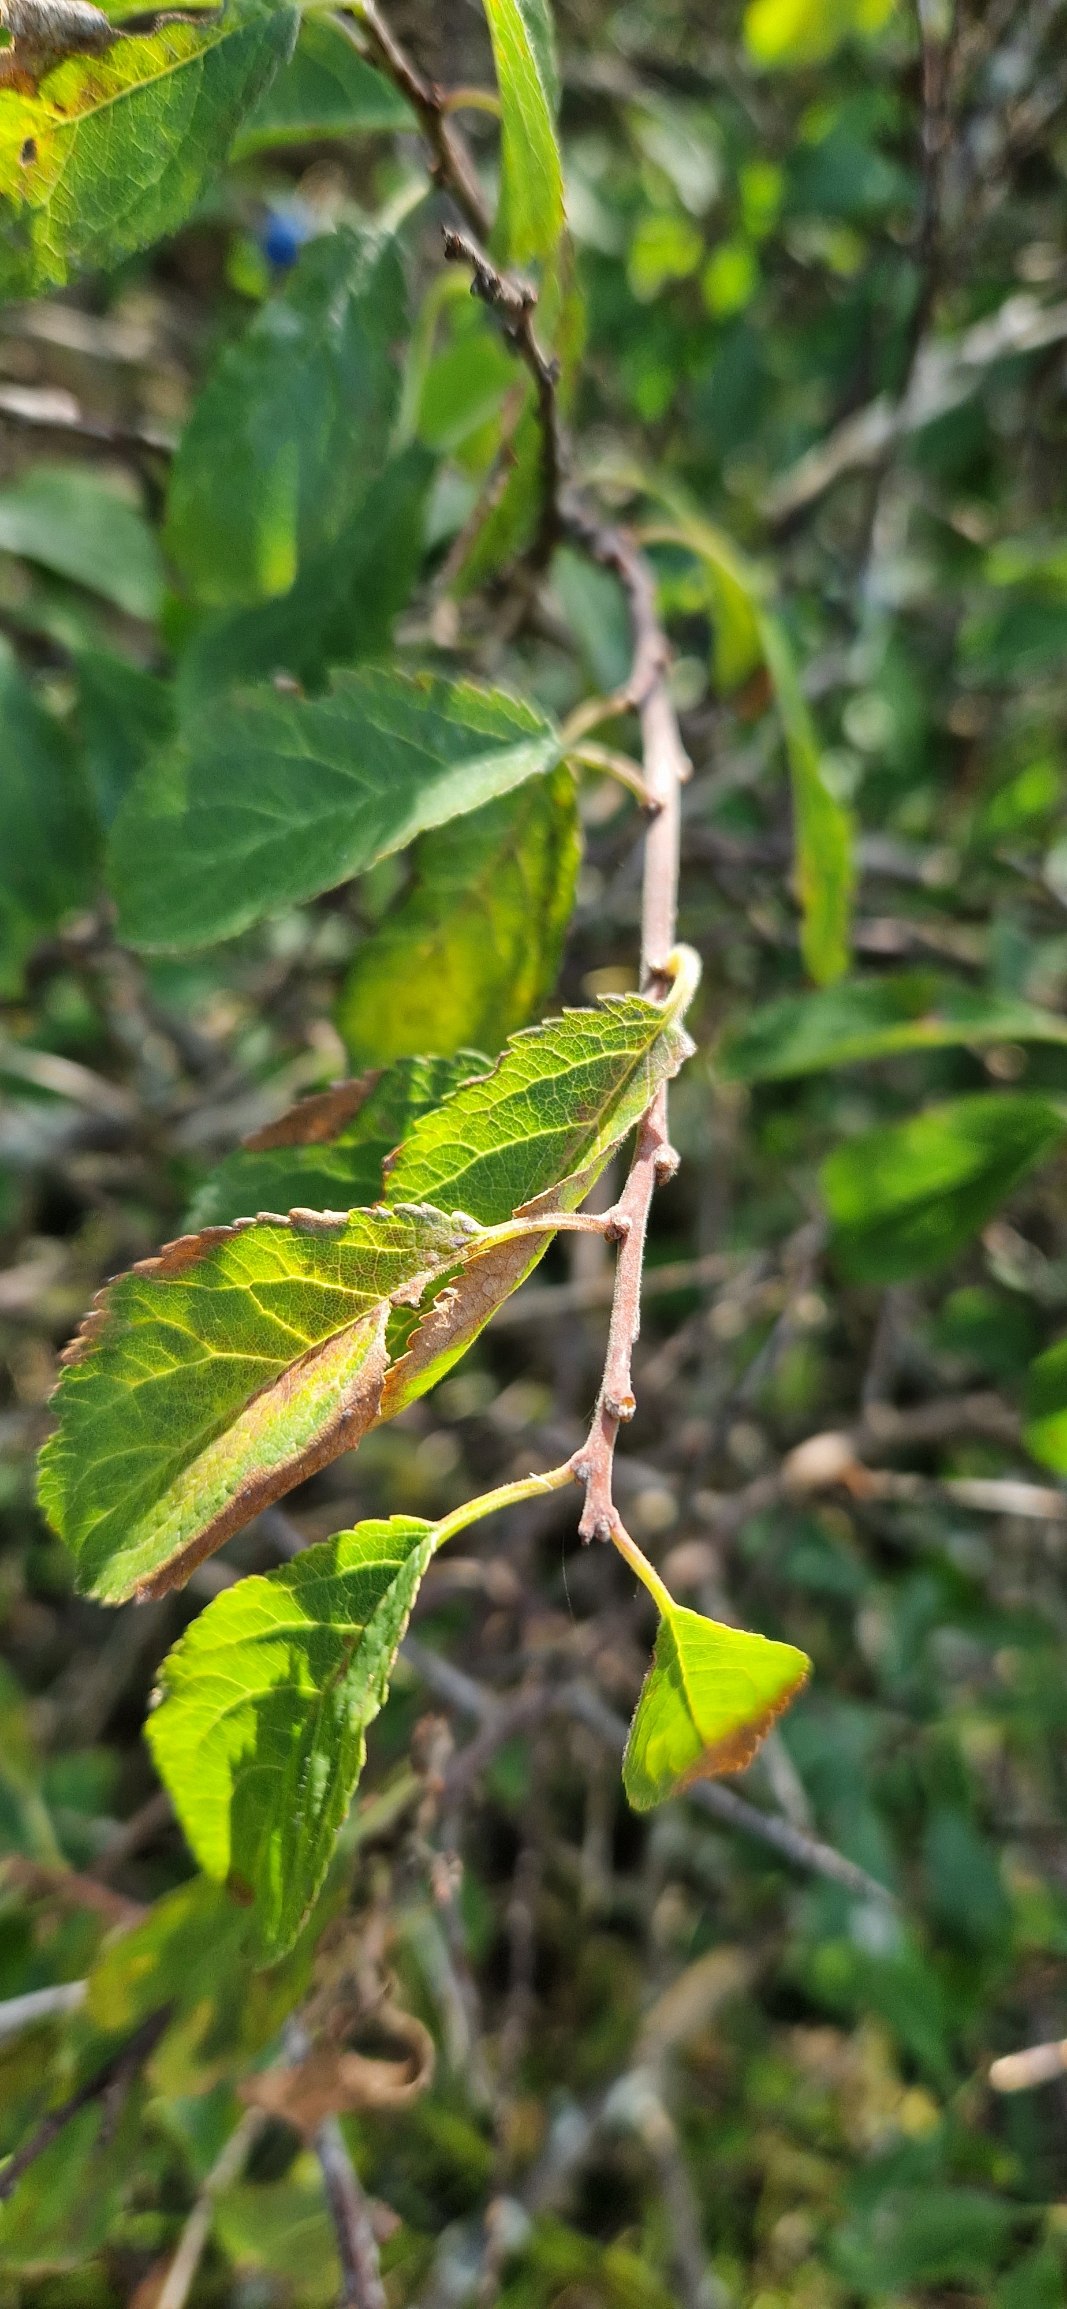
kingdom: Plantae
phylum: Tracheophyta
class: Magnoliopsida
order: Rosales
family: Rosaceae
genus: Prunus
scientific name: Prunus spinosa
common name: Slåen
